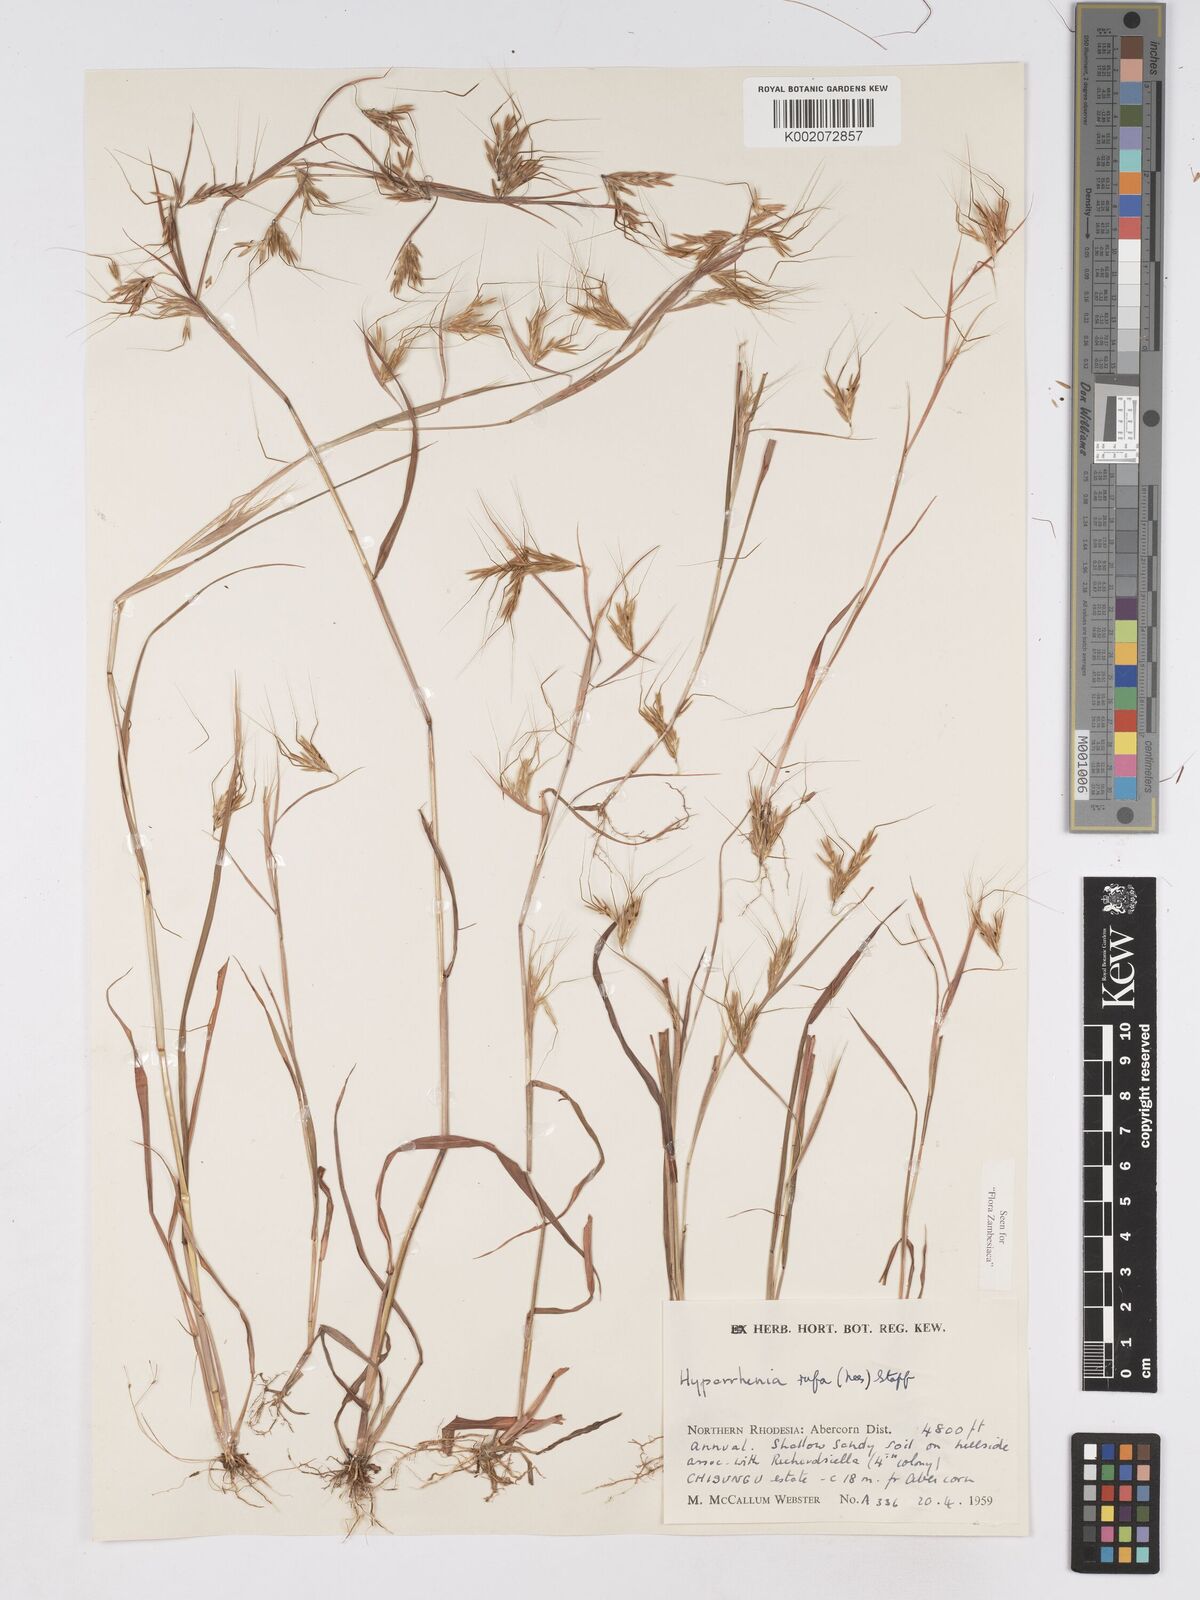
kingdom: Plantae
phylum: Tracheophyta
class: Liliopsida
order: Poales
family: Poaceae
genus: Hyparrhenia
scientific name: Hyparrhenia rufa
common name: Jaraguagrass
